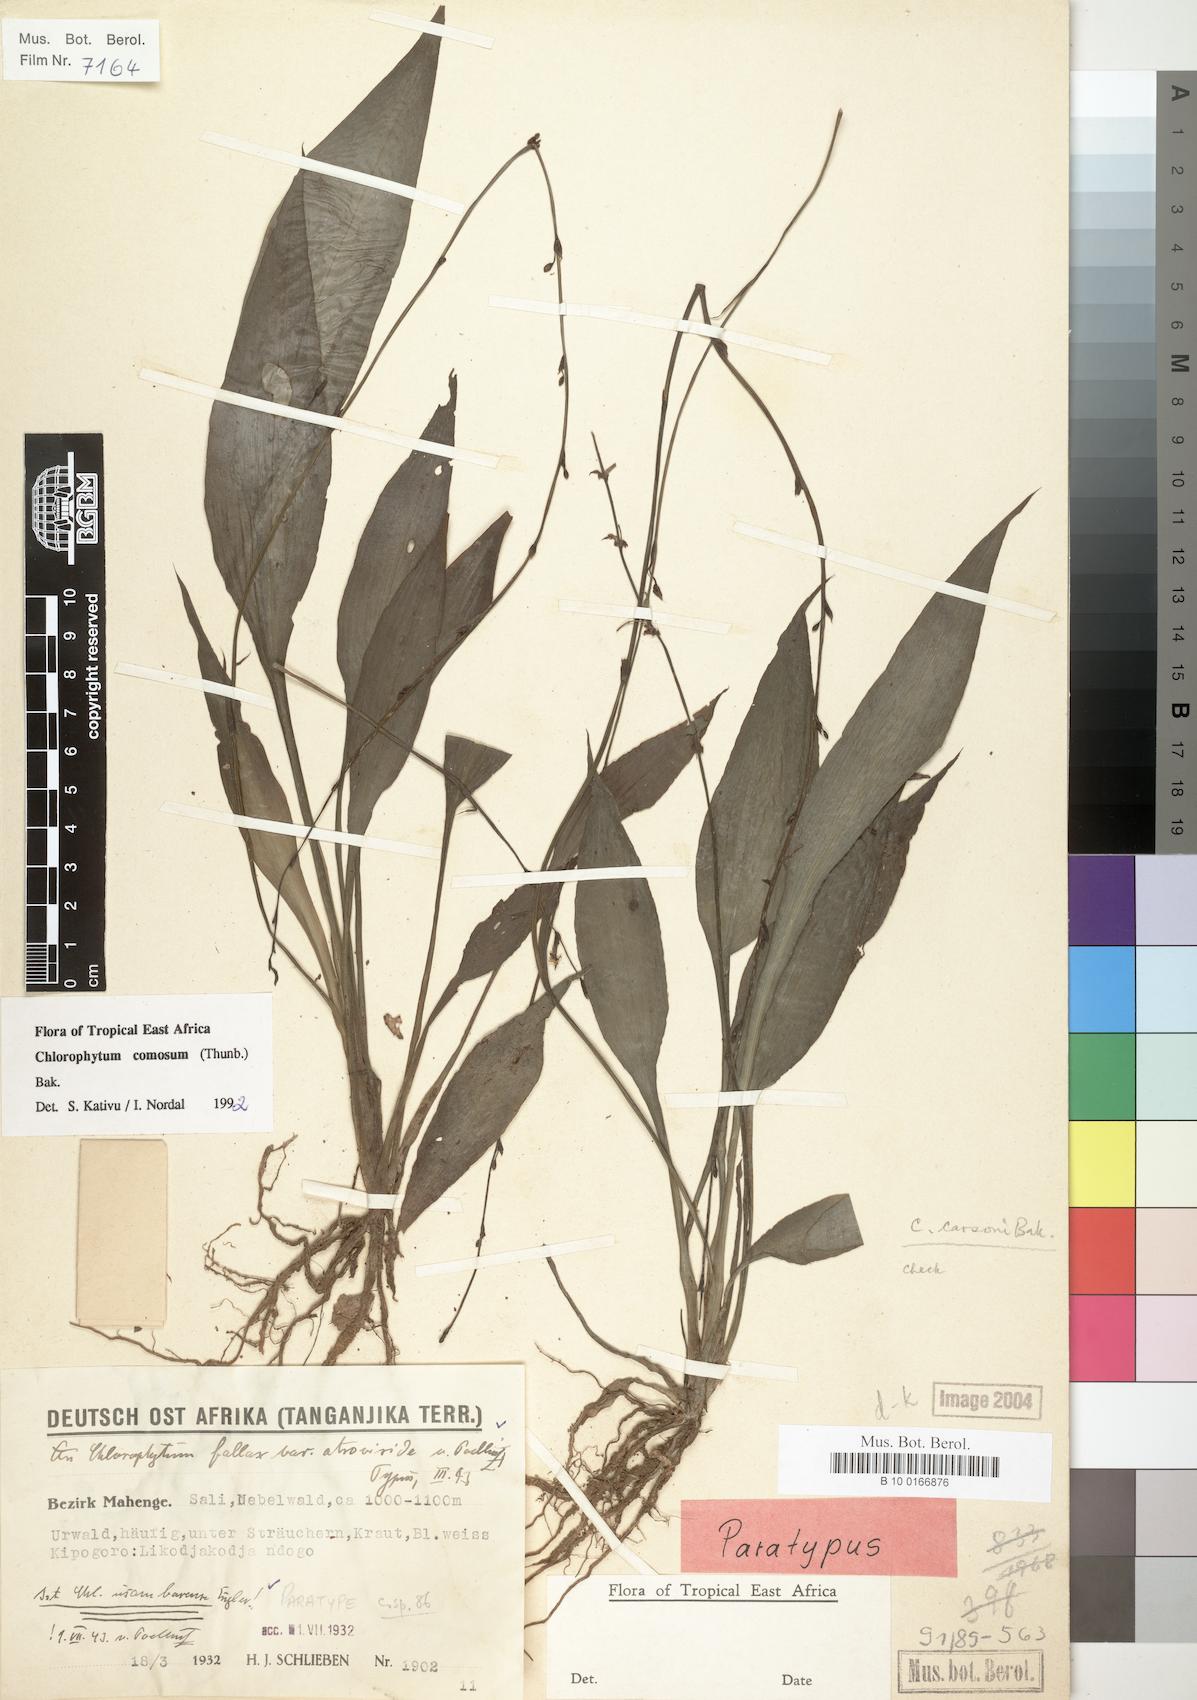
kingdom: Plantae
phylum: Tracheophyta
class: Liliopsida
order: Asparagales
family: Asparagaceae
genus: Chlorophytum
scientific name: Chlorophytum comosum
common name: Spider plant
